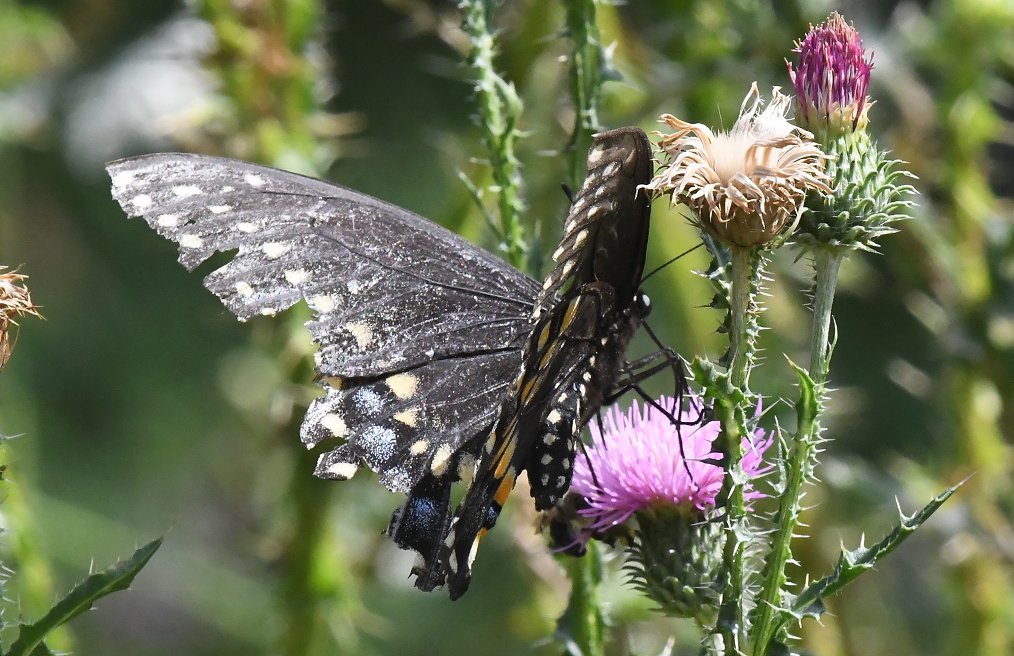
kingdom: Animalia
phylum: Arthropoda
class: Insecta
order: Lepidoptera
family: Papilionidae
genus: Papilio
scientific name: Papilio polyxenes
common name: Black Swallowtail
